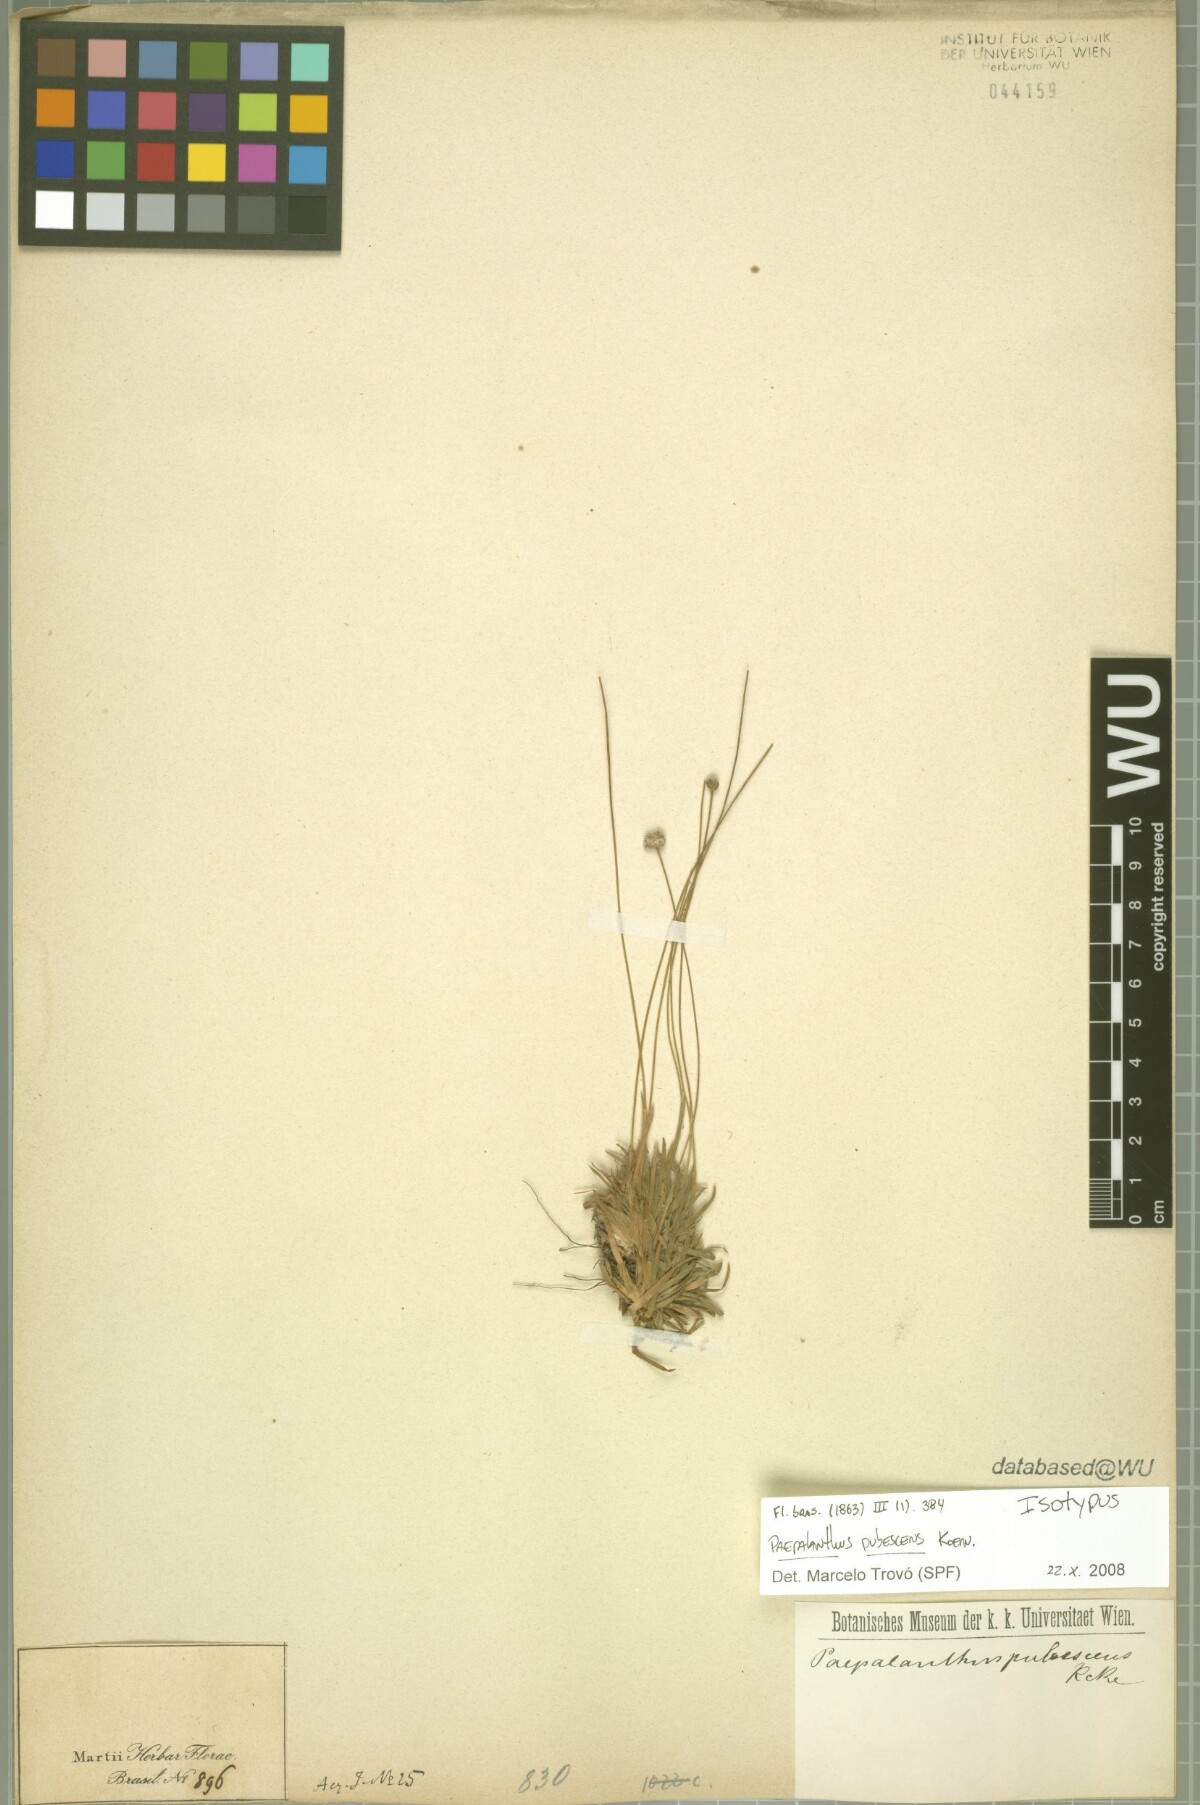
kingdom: Plantae
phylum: Tracheophyta
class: Liliopsida
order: Poales
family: Eriocaulaceae
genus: Paepalanthus
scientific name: Paepalanthus pubescens
